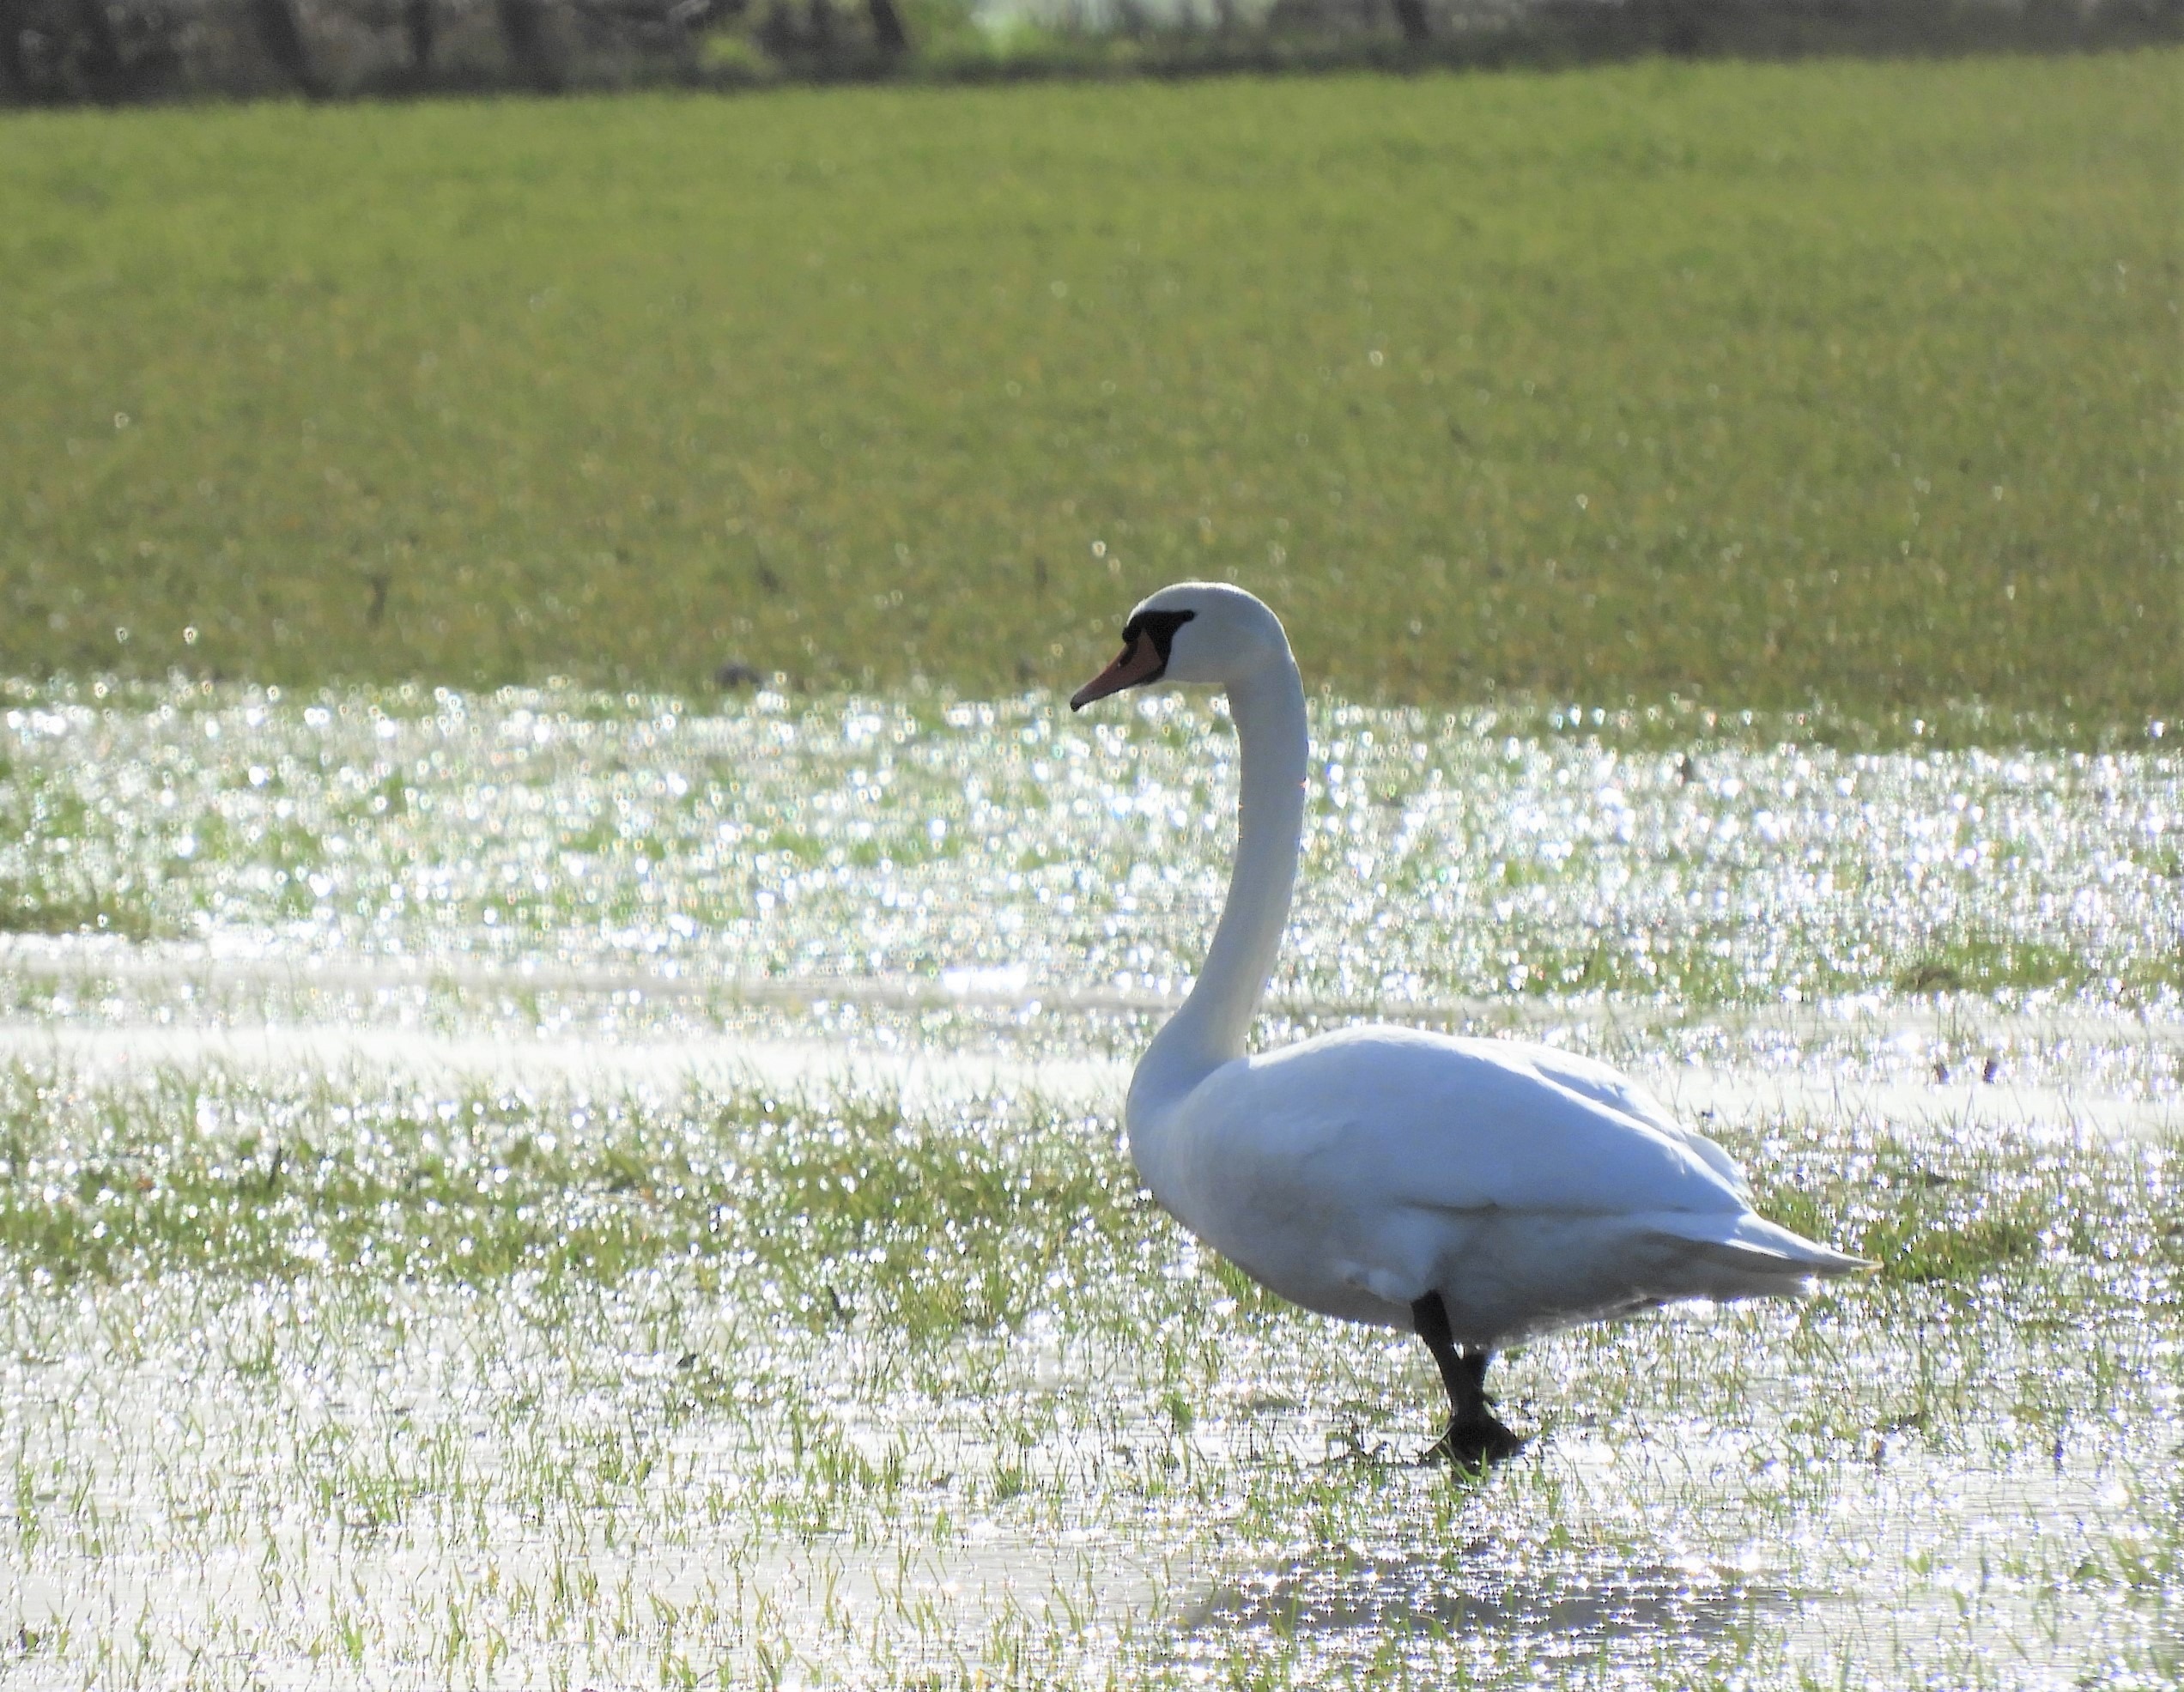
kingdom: Animalia
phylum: Chordata
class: Aves
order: Anseriformes
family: Anatidae
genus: Cygnus
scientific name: Cygnus olor
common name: Knopsvane
